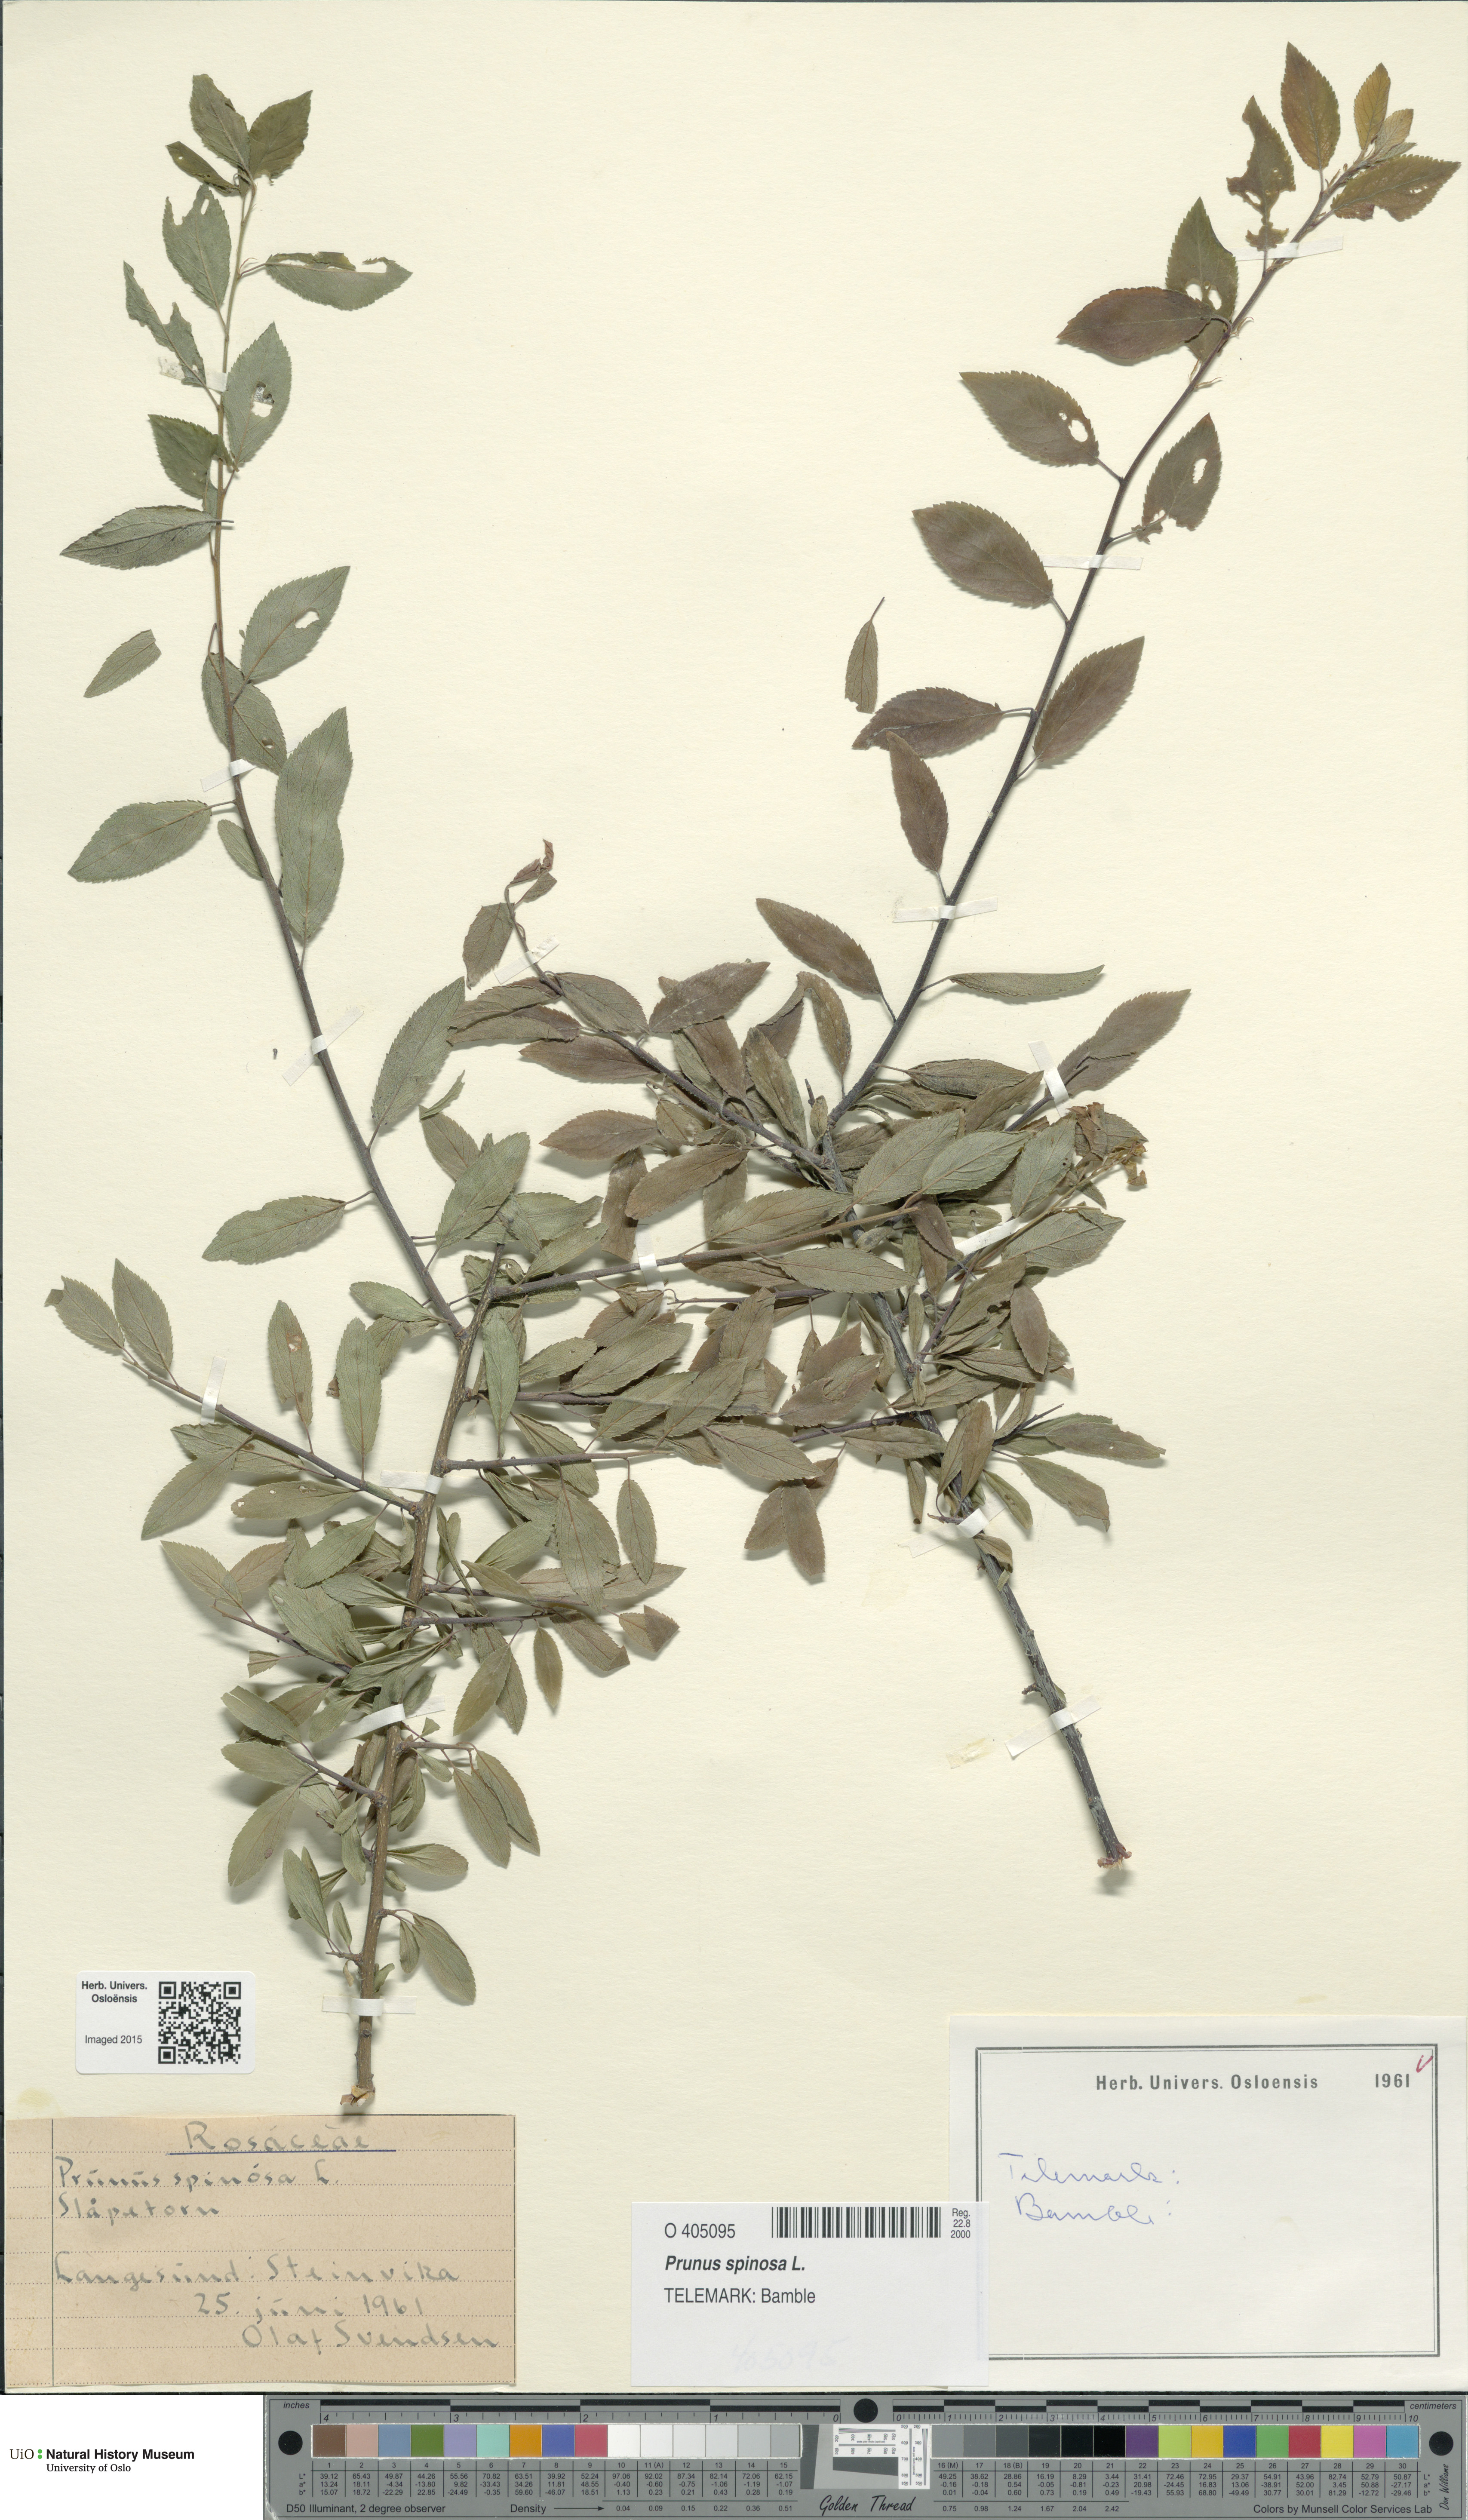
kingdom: Plantae
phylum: Tracheophyta
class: Magnoliopsida
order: Rosales
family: Rosaceae
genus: Prunus
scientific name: Prunus spinosa
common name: Blackthorn
